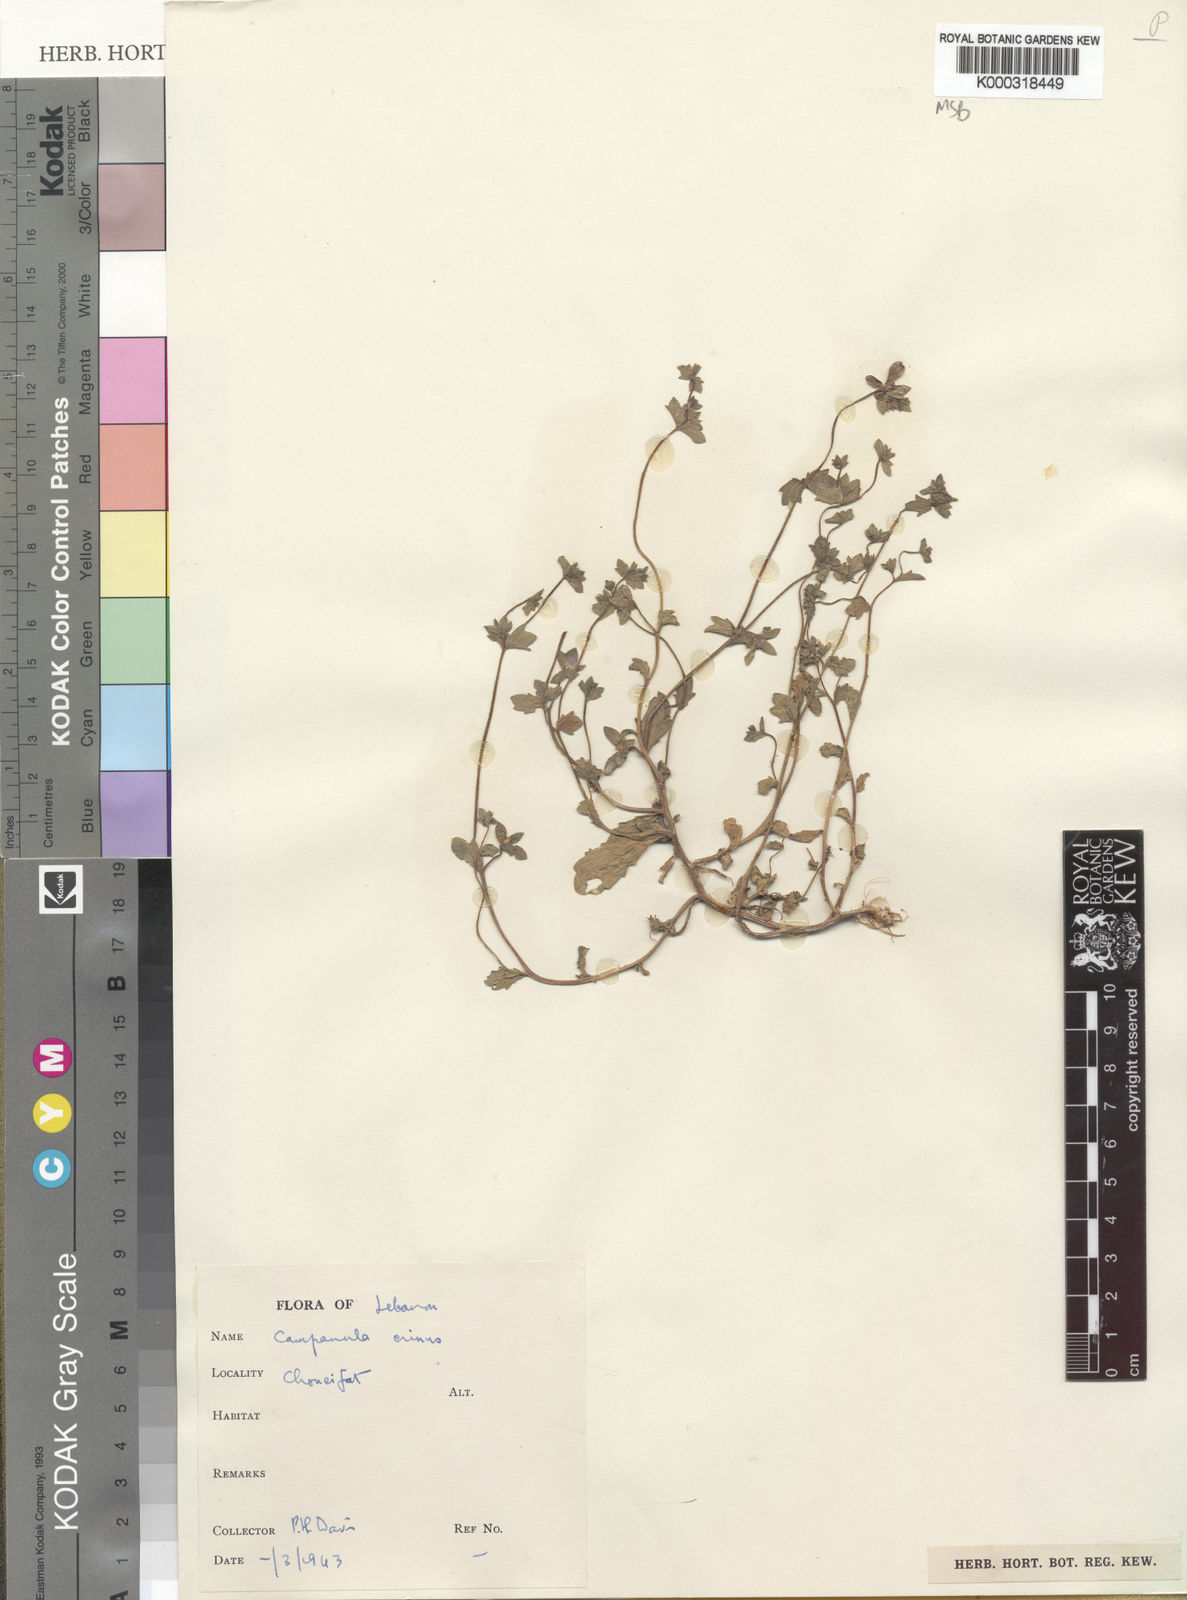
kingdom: Plantae
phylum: Tracheophyta
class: Magnoliopsida
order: Asterales
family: Campanulaceae
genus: Campanula
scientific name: Campanula erinus
